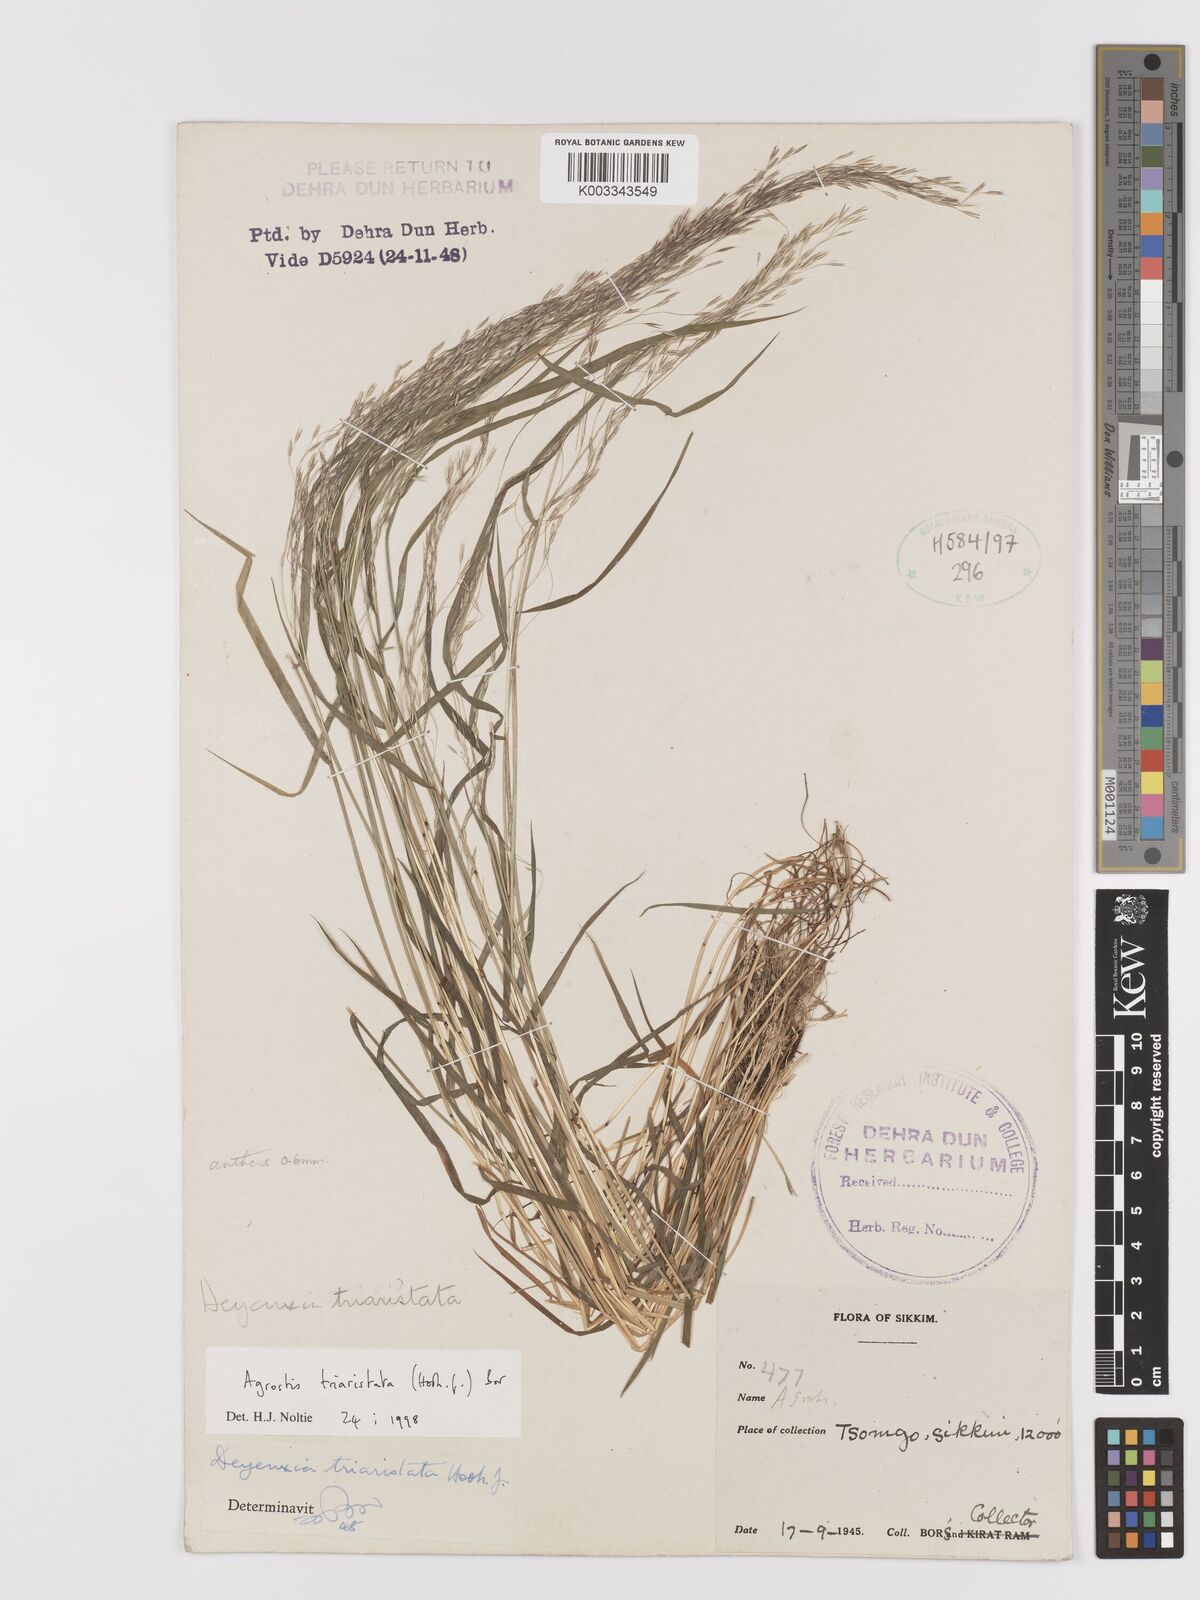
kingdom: Plantae
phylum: Tracheophyta
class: Liliopsida
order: Poales
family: Poaceae
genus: Agrostis
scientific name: Agrostis
